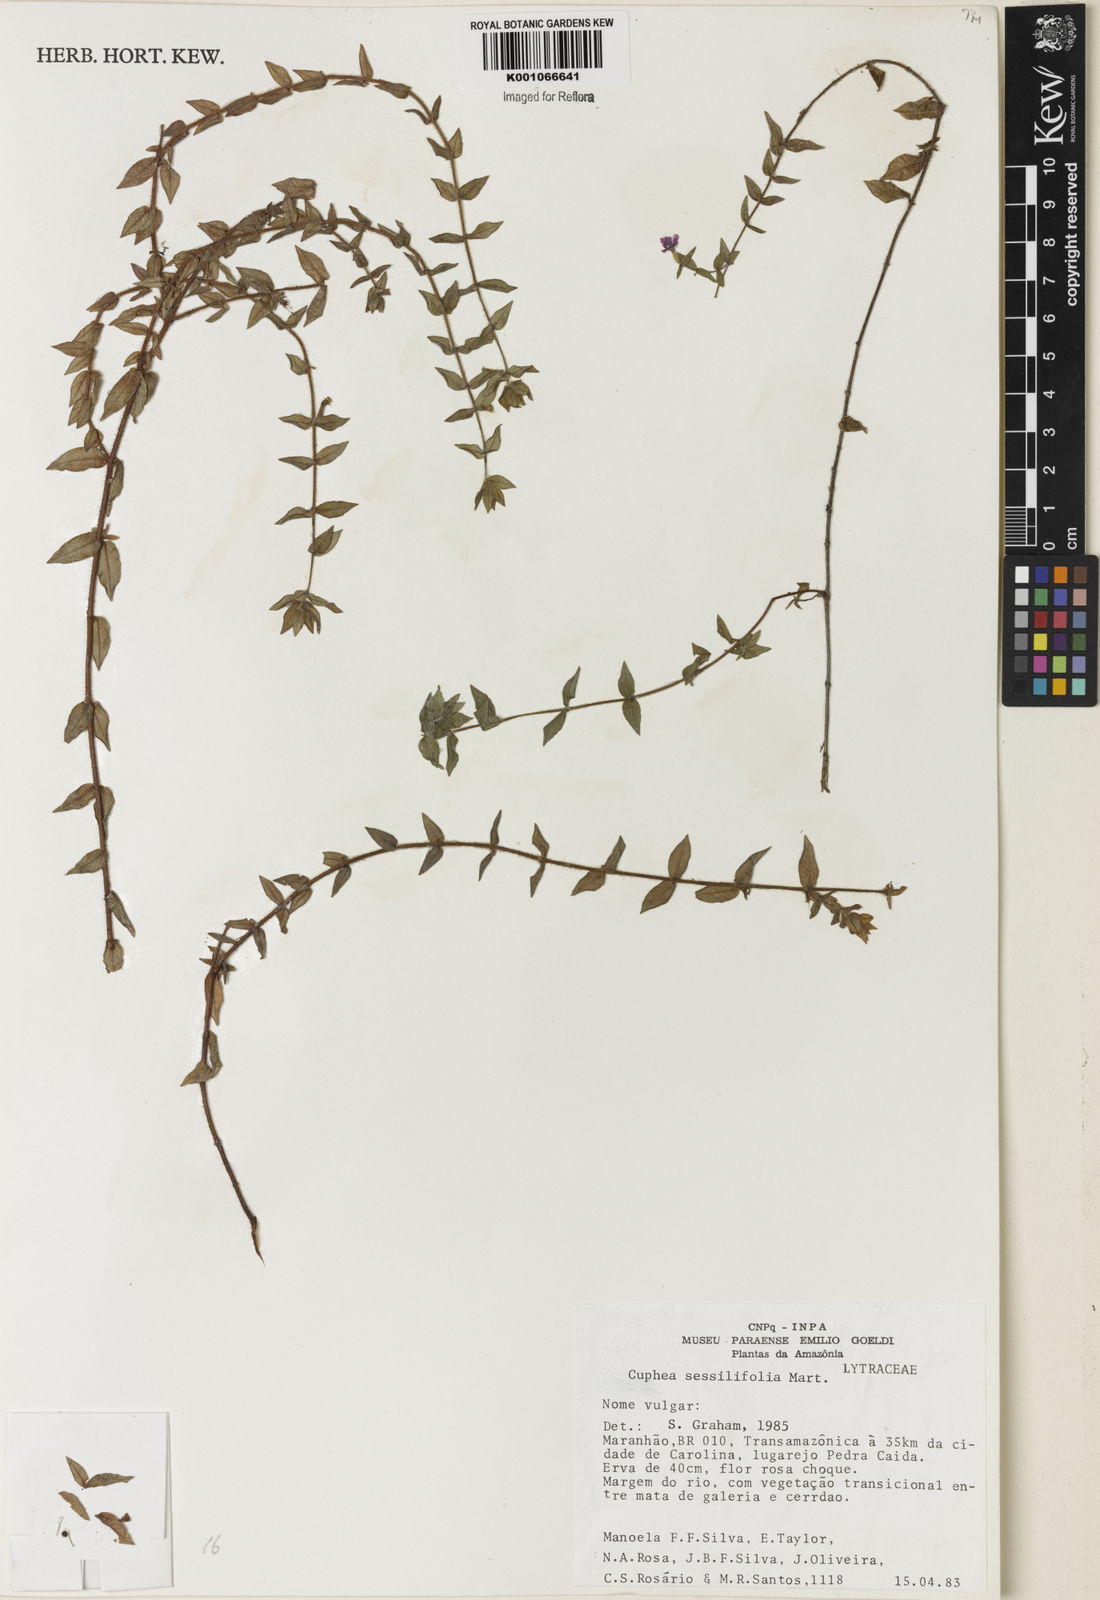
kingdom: Plantae
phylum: Tracheophyta
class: Magnoliopsida
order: Myrtales
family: Lythraceae
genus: Cuphea
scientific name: Cuphea
